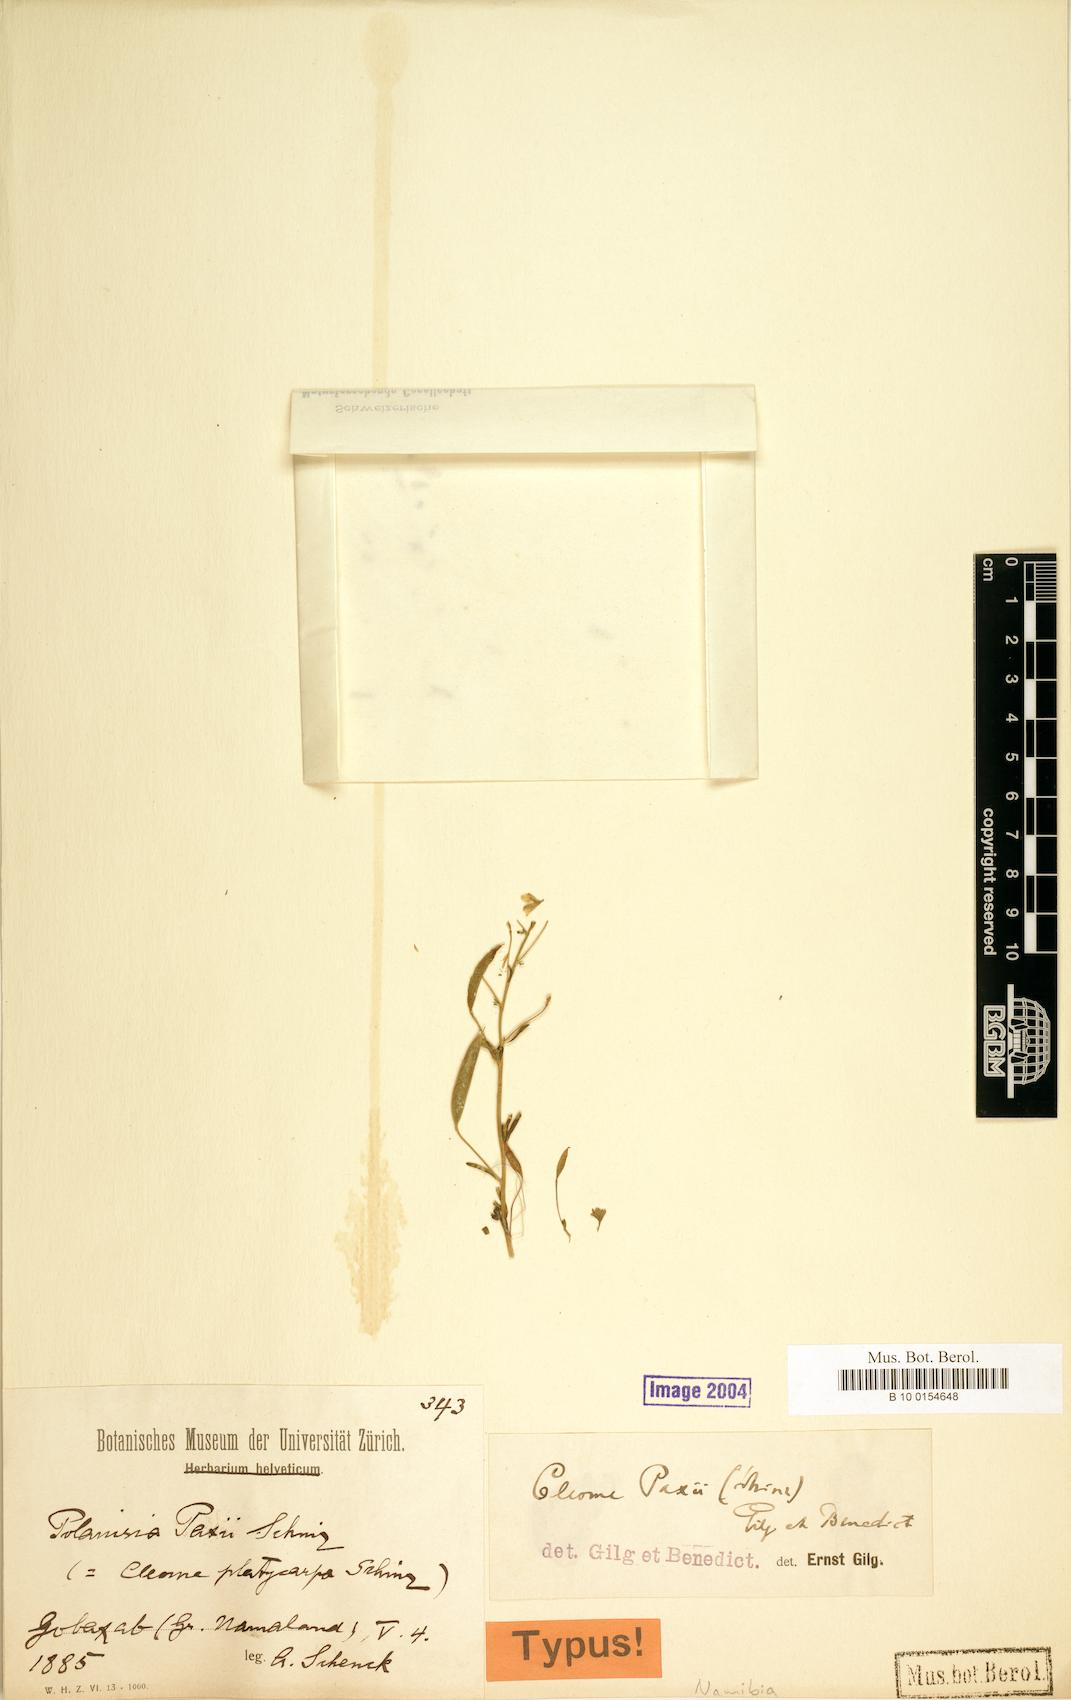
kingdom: Plantae
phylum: Tracheophyta
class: Magnoliopsida
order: Brassicales
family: Cleomaceae
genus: Kersia
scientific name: Kersia paxii
